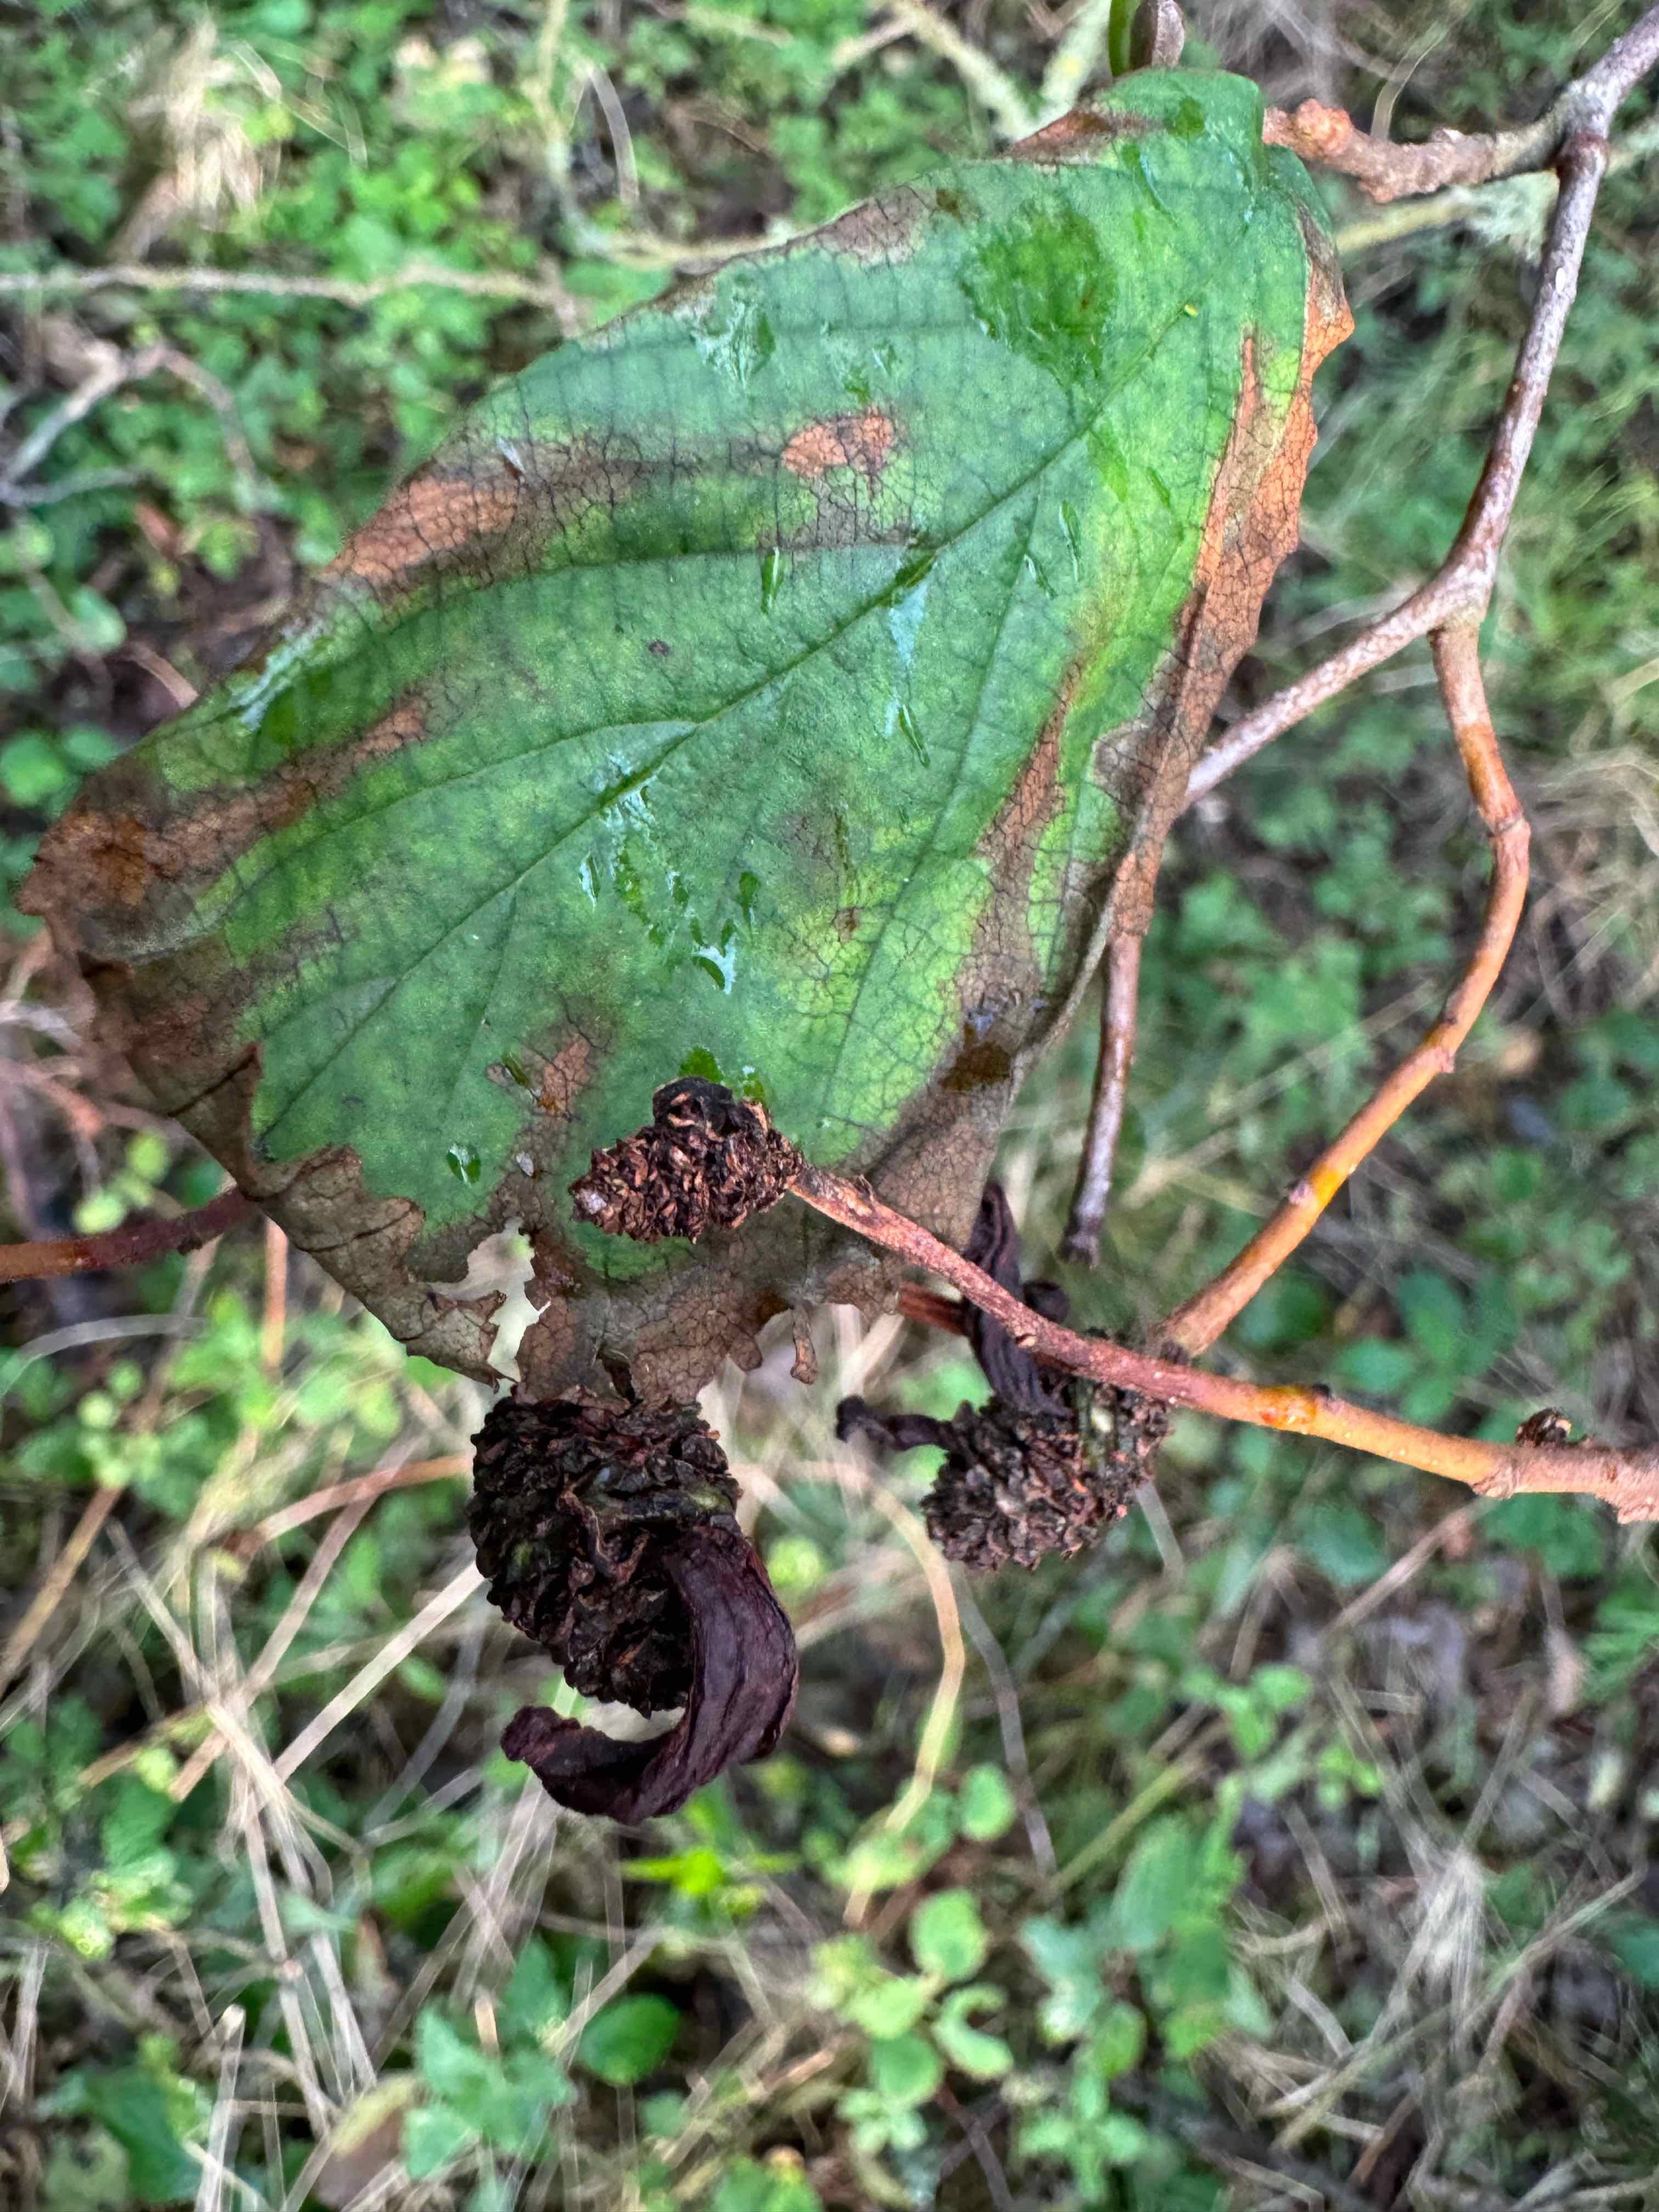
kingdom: Fungi
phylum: Ascomycota
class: Taphrinomycetes
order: Taphrinales
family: Taphrinaceae
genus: Taphrina
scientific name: Taphrina alni
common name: Alder tongue
